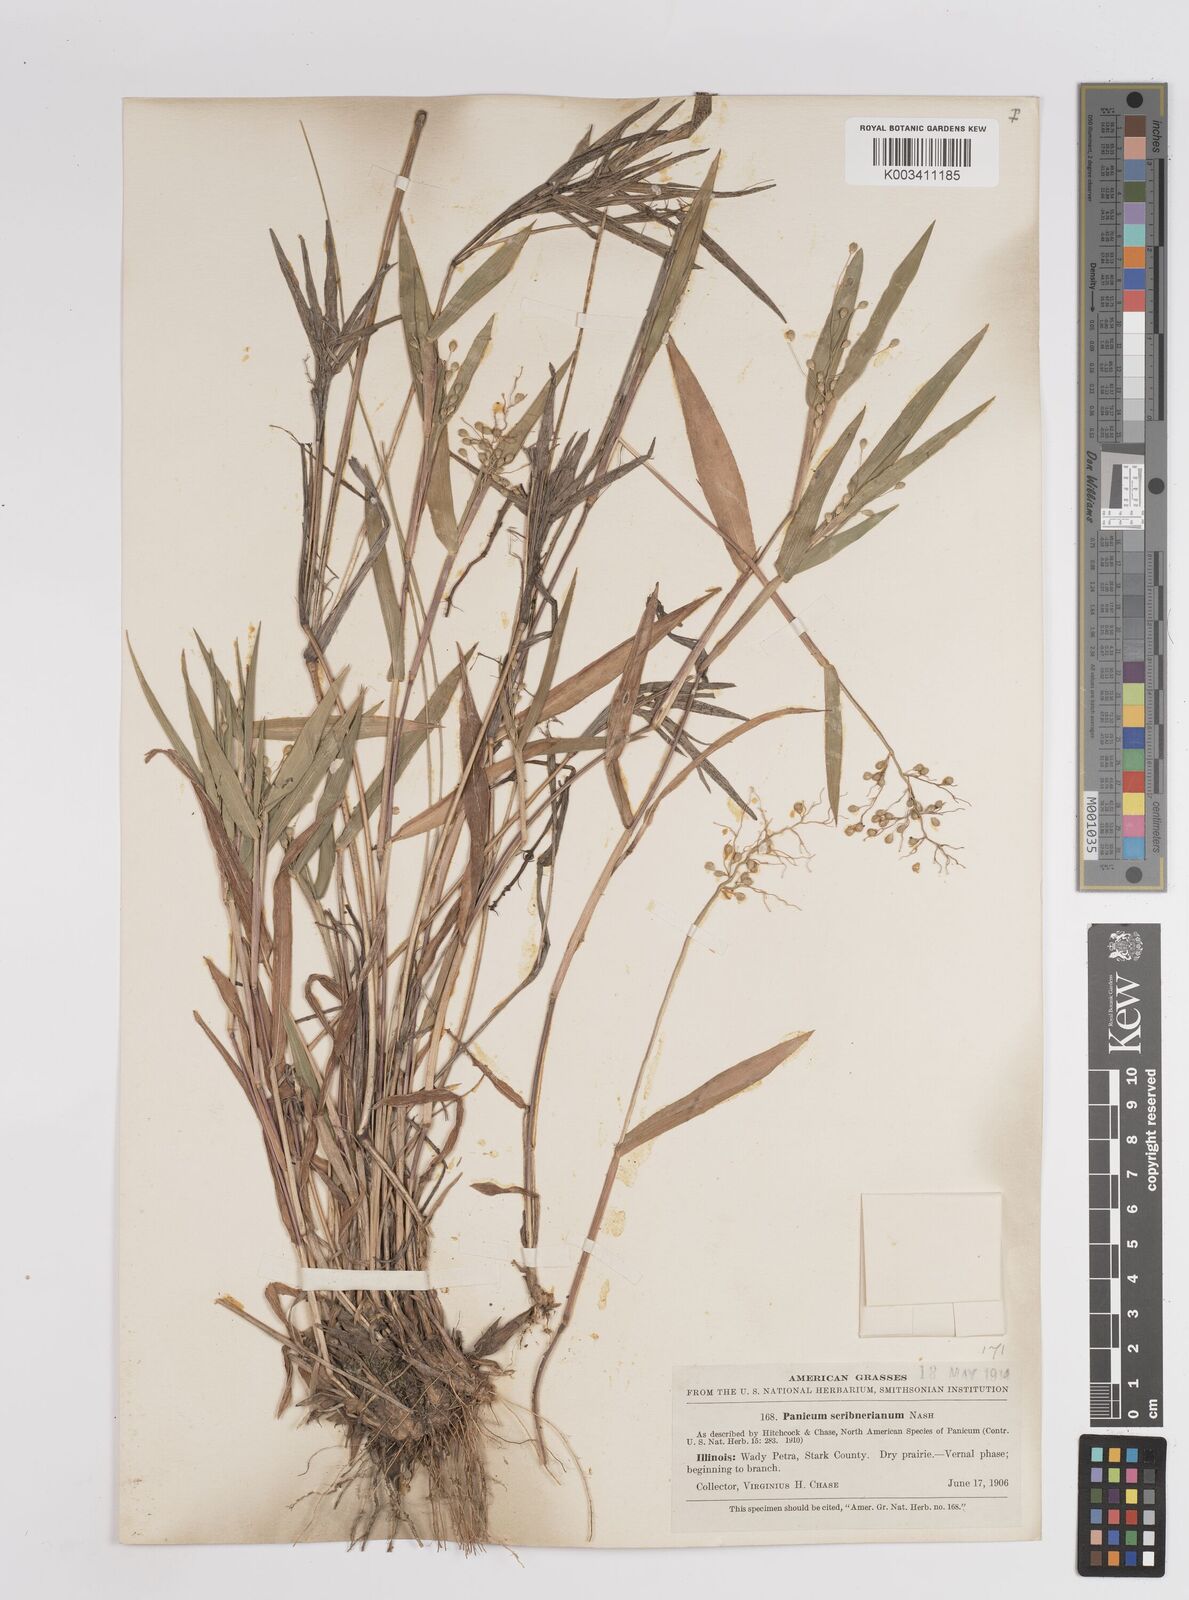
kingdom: Plantae
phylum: Tracheophyta
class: Liliopsida
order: Poales
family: Poaceae
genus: Dichanthelium
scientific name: Dichanthelium oligosanthes
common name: Few-anther obscuregrass
